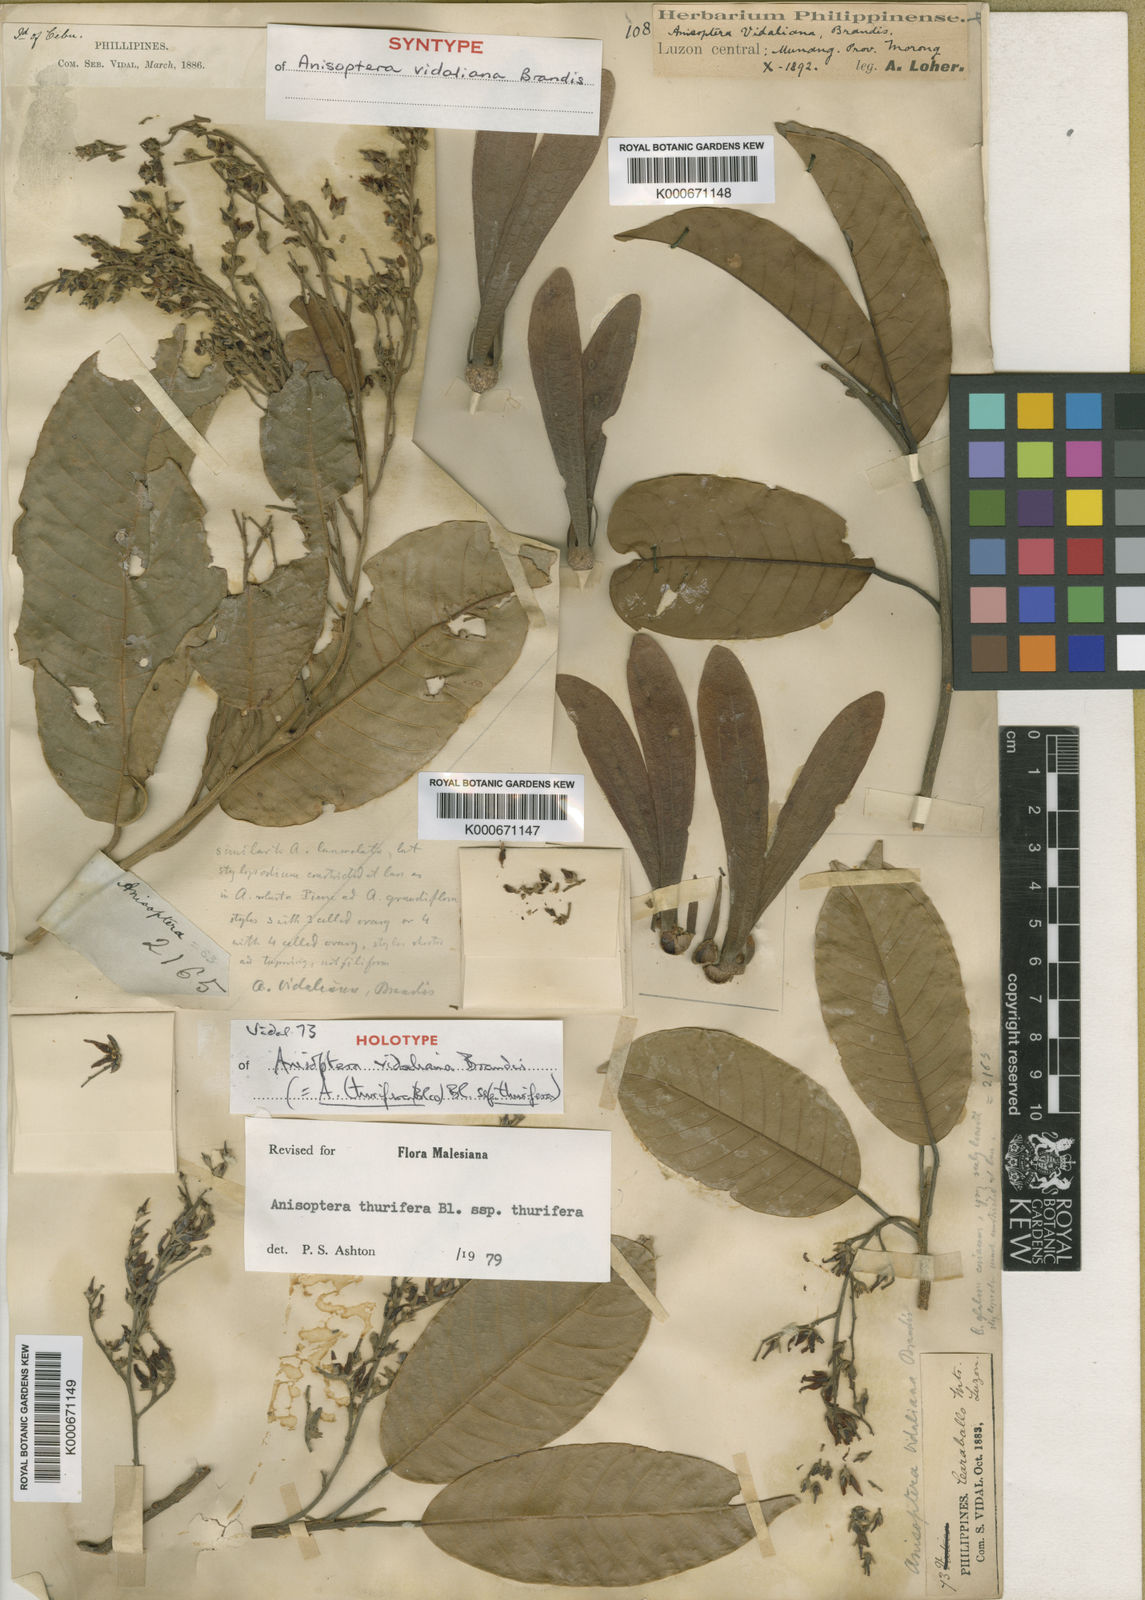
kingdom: Plantae
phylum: Tracheophyta
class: Magnoliopsida
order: Malvales
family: Dipterocarpaceae
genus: Anisoptera
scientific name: Anisoptera thurifera
